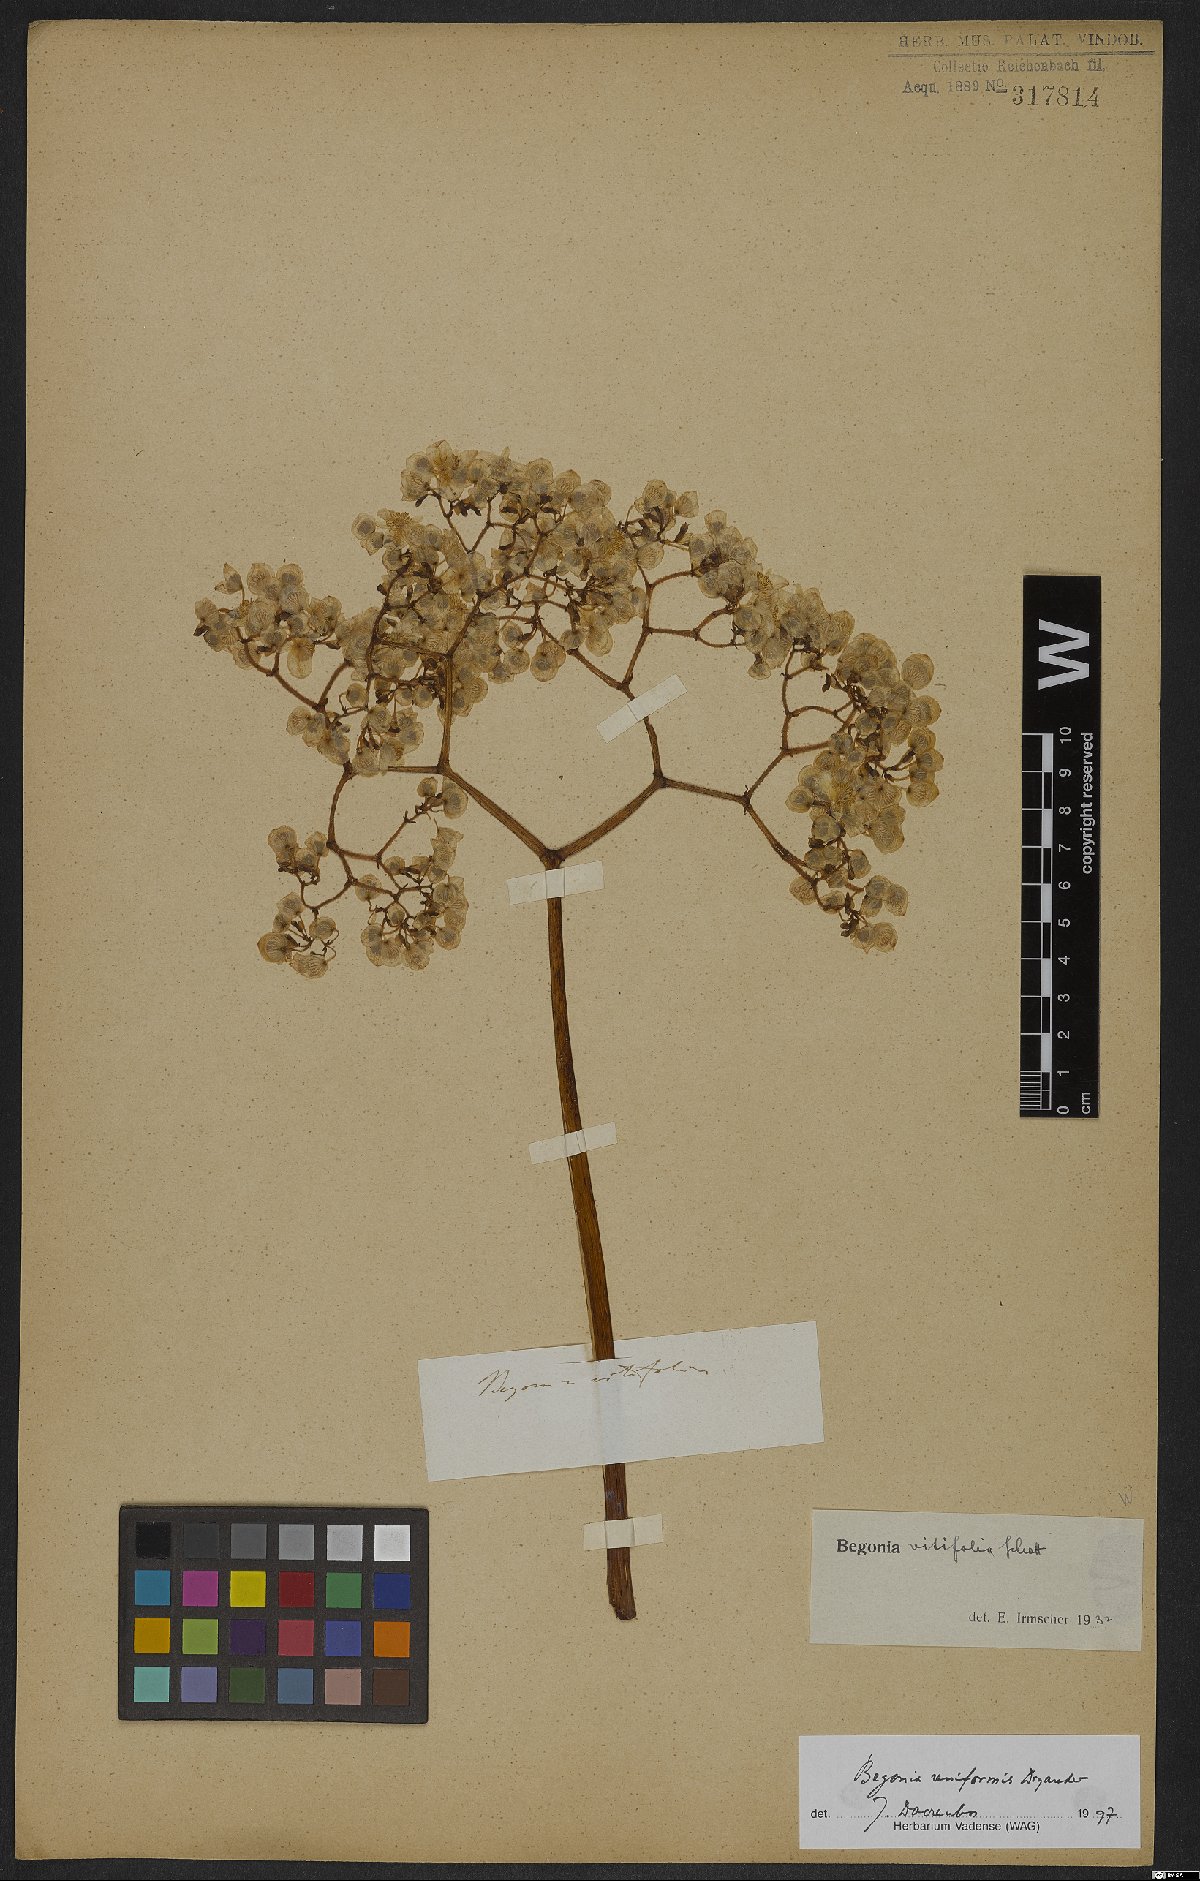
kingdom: Plantae
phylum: Tracheophyta
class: Magnoliopsida
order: Cucurbitales
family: Begoniaceae
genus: Begonia
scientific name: Begonia reniformis
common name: Grapeleaf begonia
